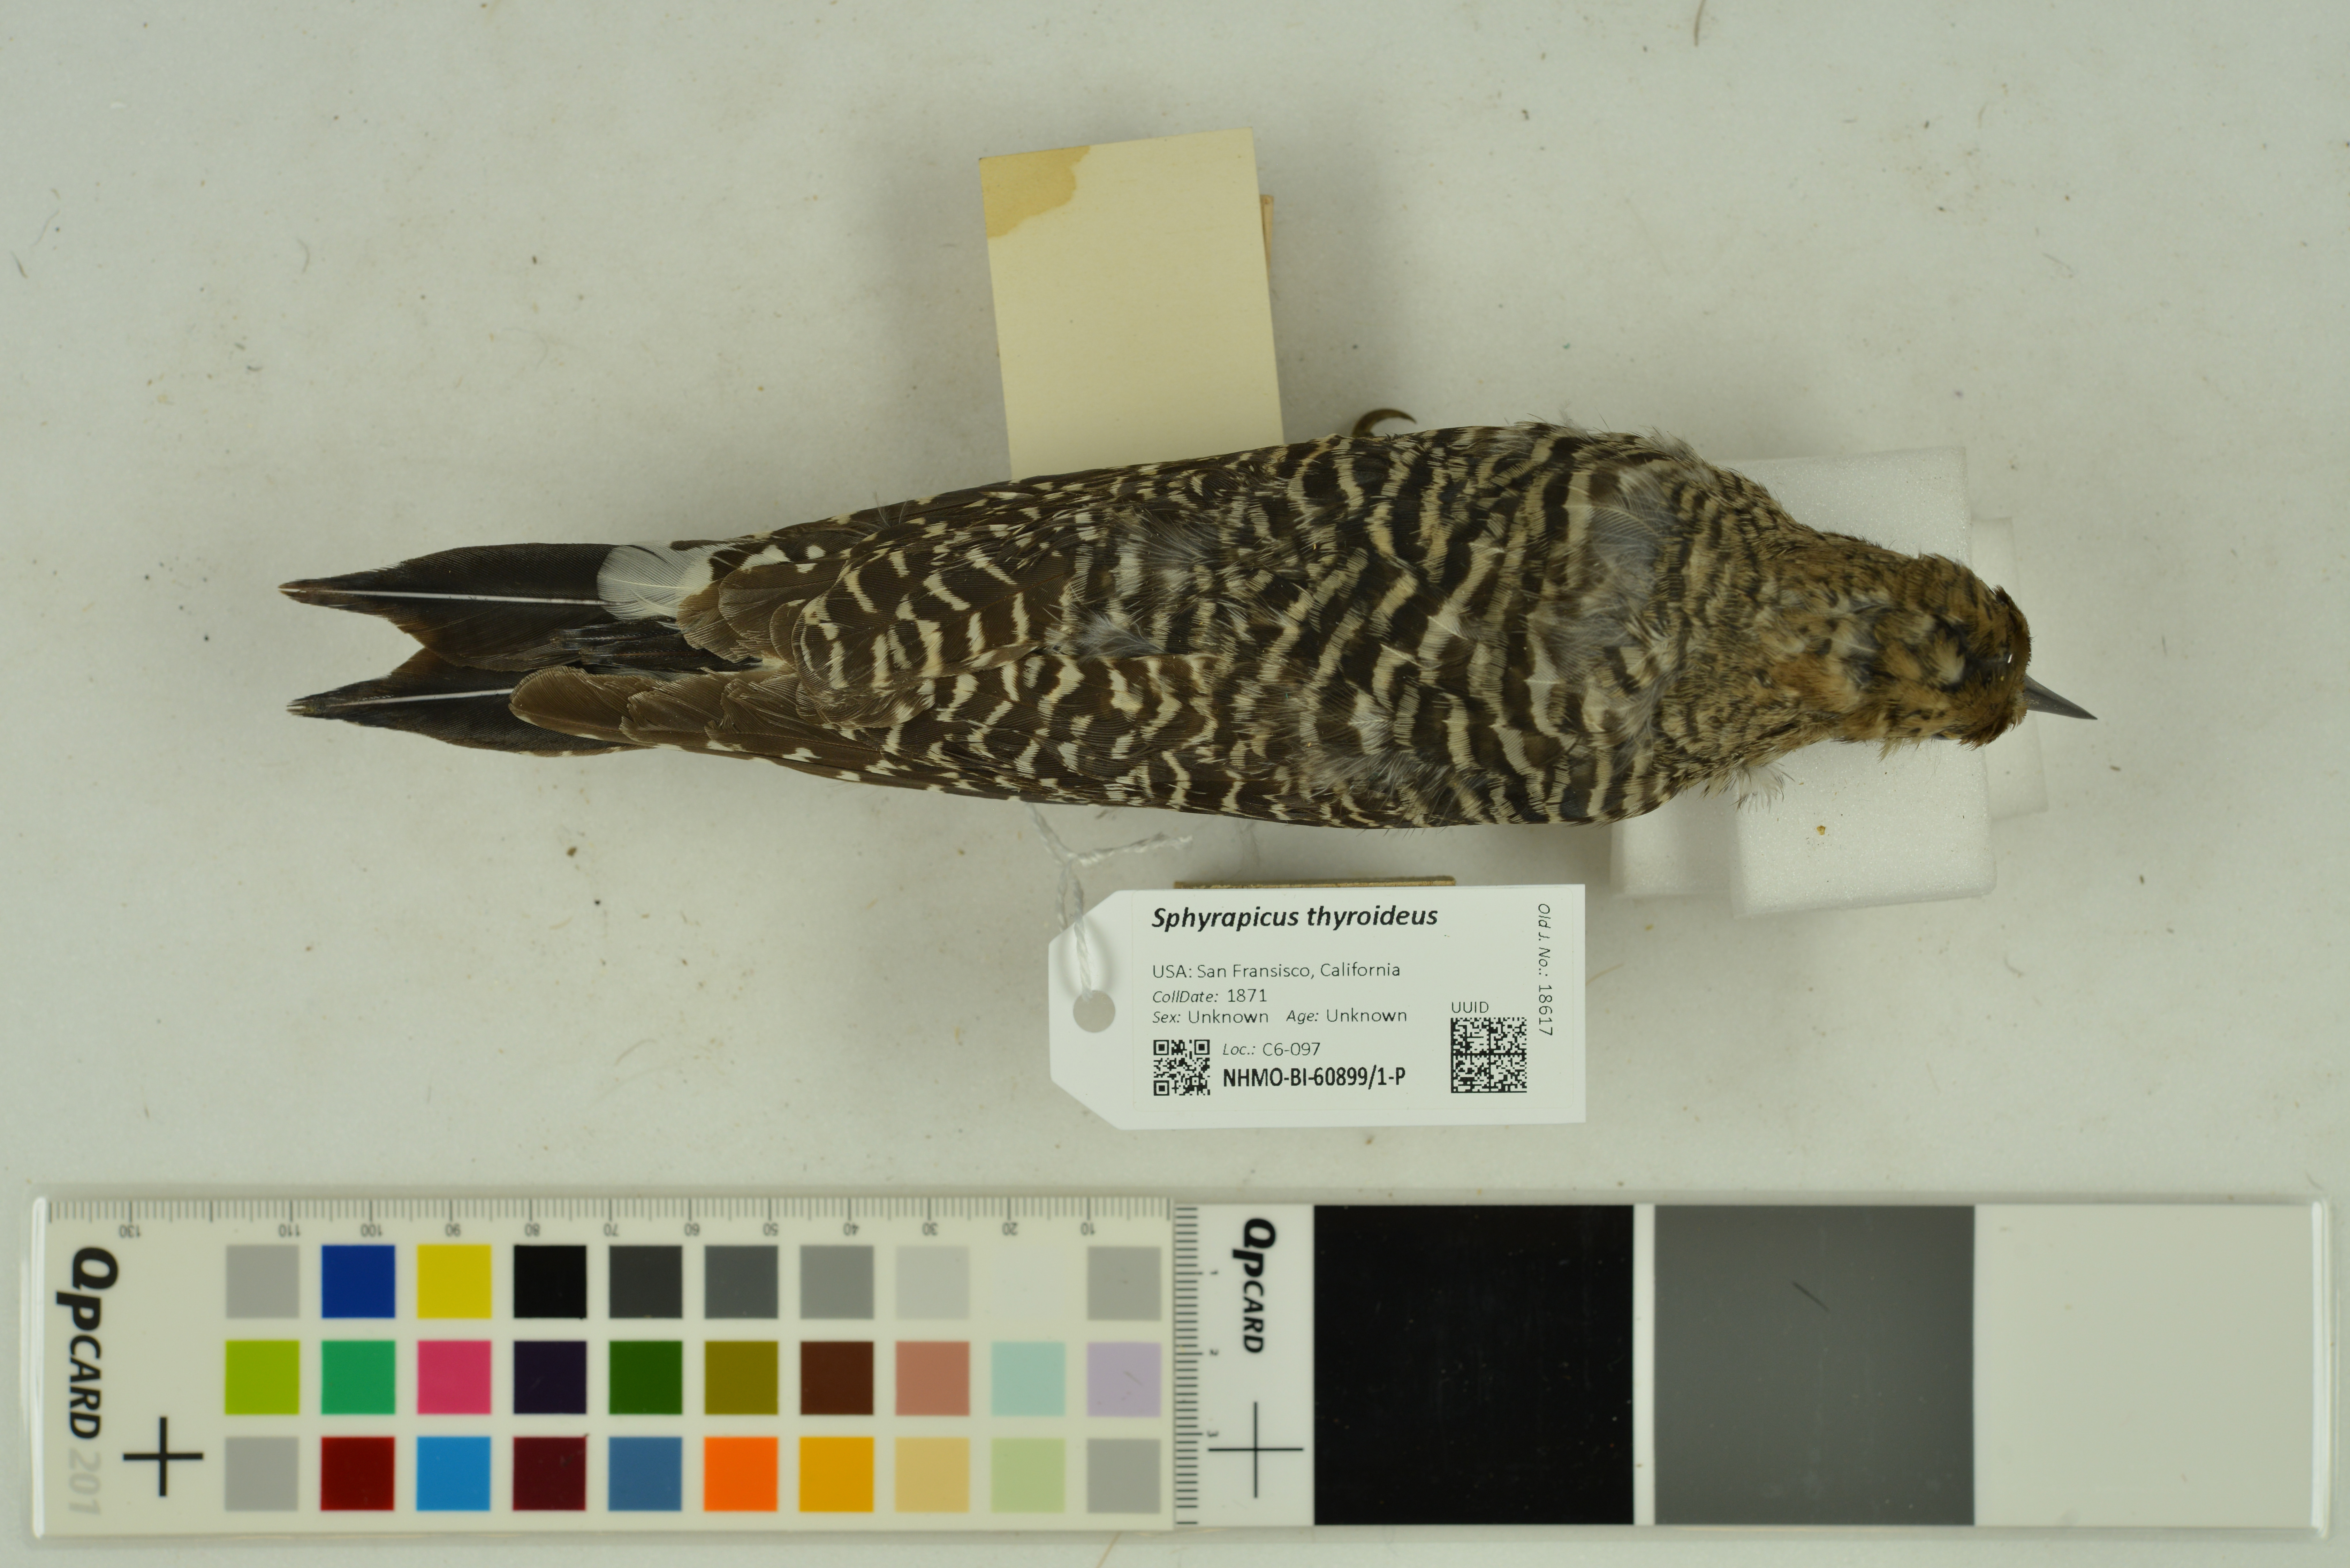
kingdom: Animalia
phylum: Chordata
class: Aves
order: Piciformes
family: Picidae
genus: Sphyrapicus
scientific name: Sphyrapicus thyroideus
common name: Williamson's sapsucker
